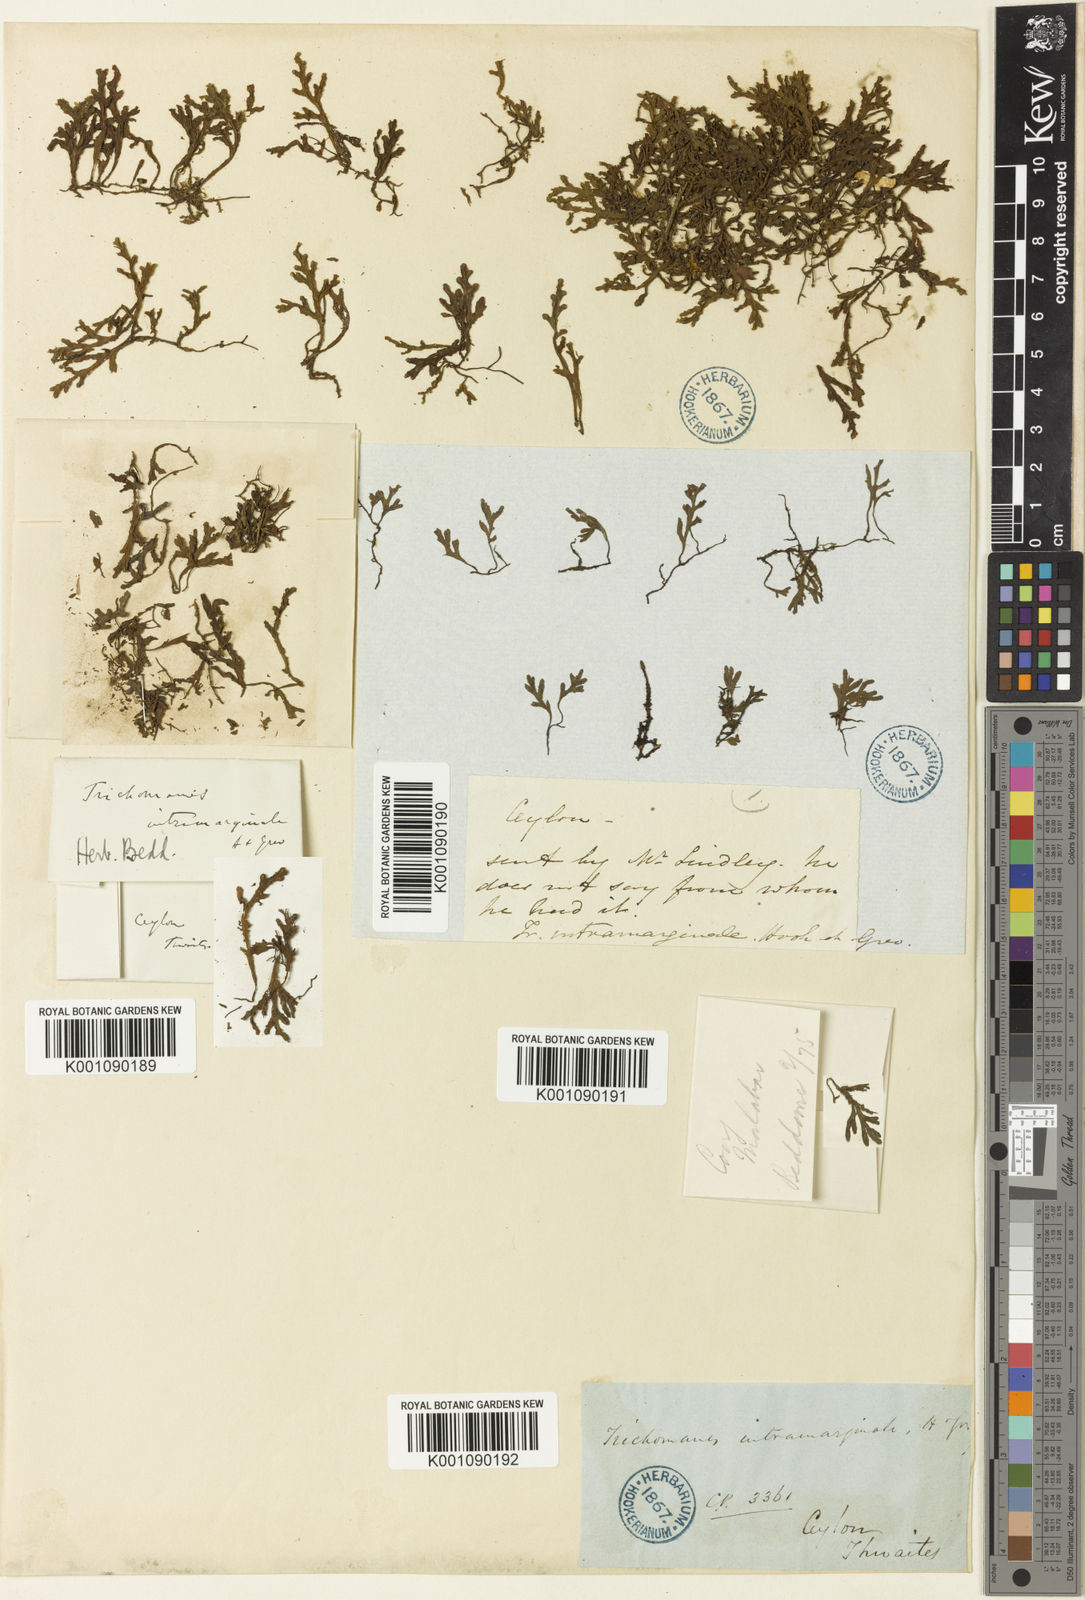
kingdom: Plantae
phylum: Tracheophyta
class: Polypodiopsida
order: Hymenophyllales
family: Hymenophyllaceae
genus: Crepidomanes
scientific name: Crepidomanes intramarginale
